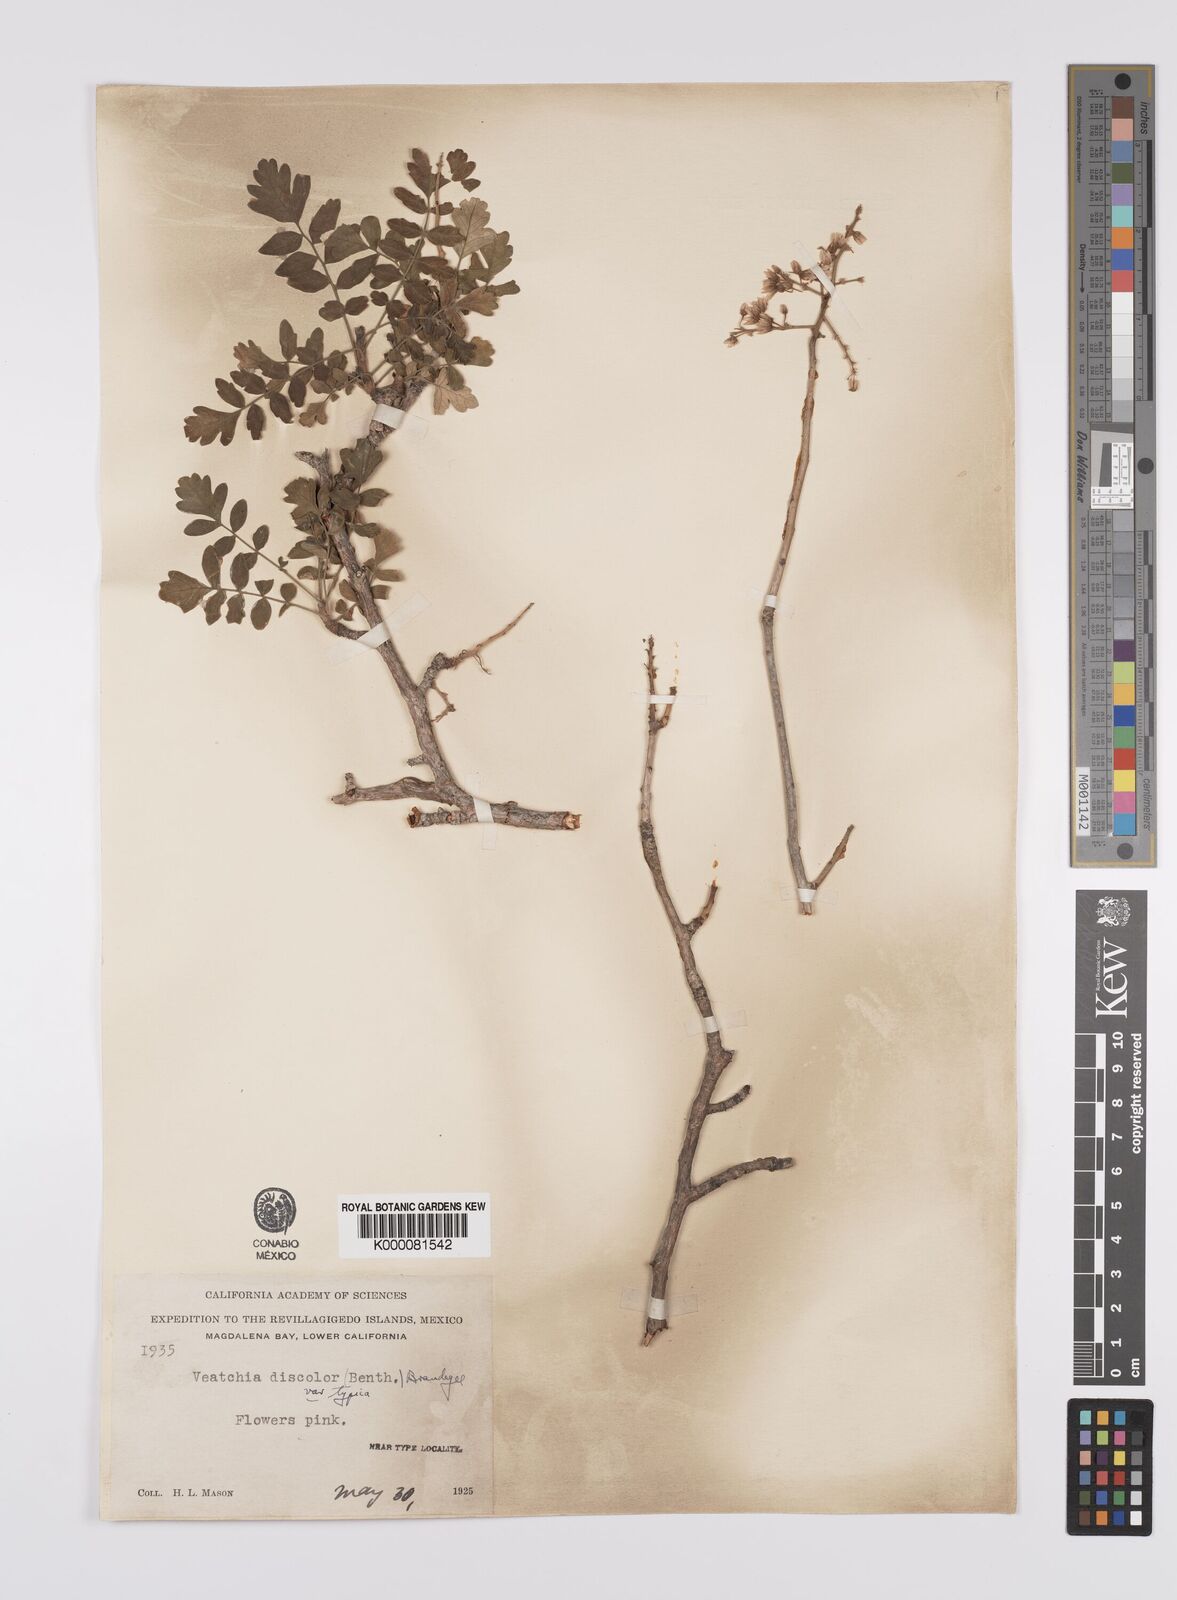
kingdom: Plantae
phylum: Tracheophyta
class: Magnoliopsida
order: Sapindales
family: Anacardiaceae
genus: Pachycormus
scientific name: Pachycormus
